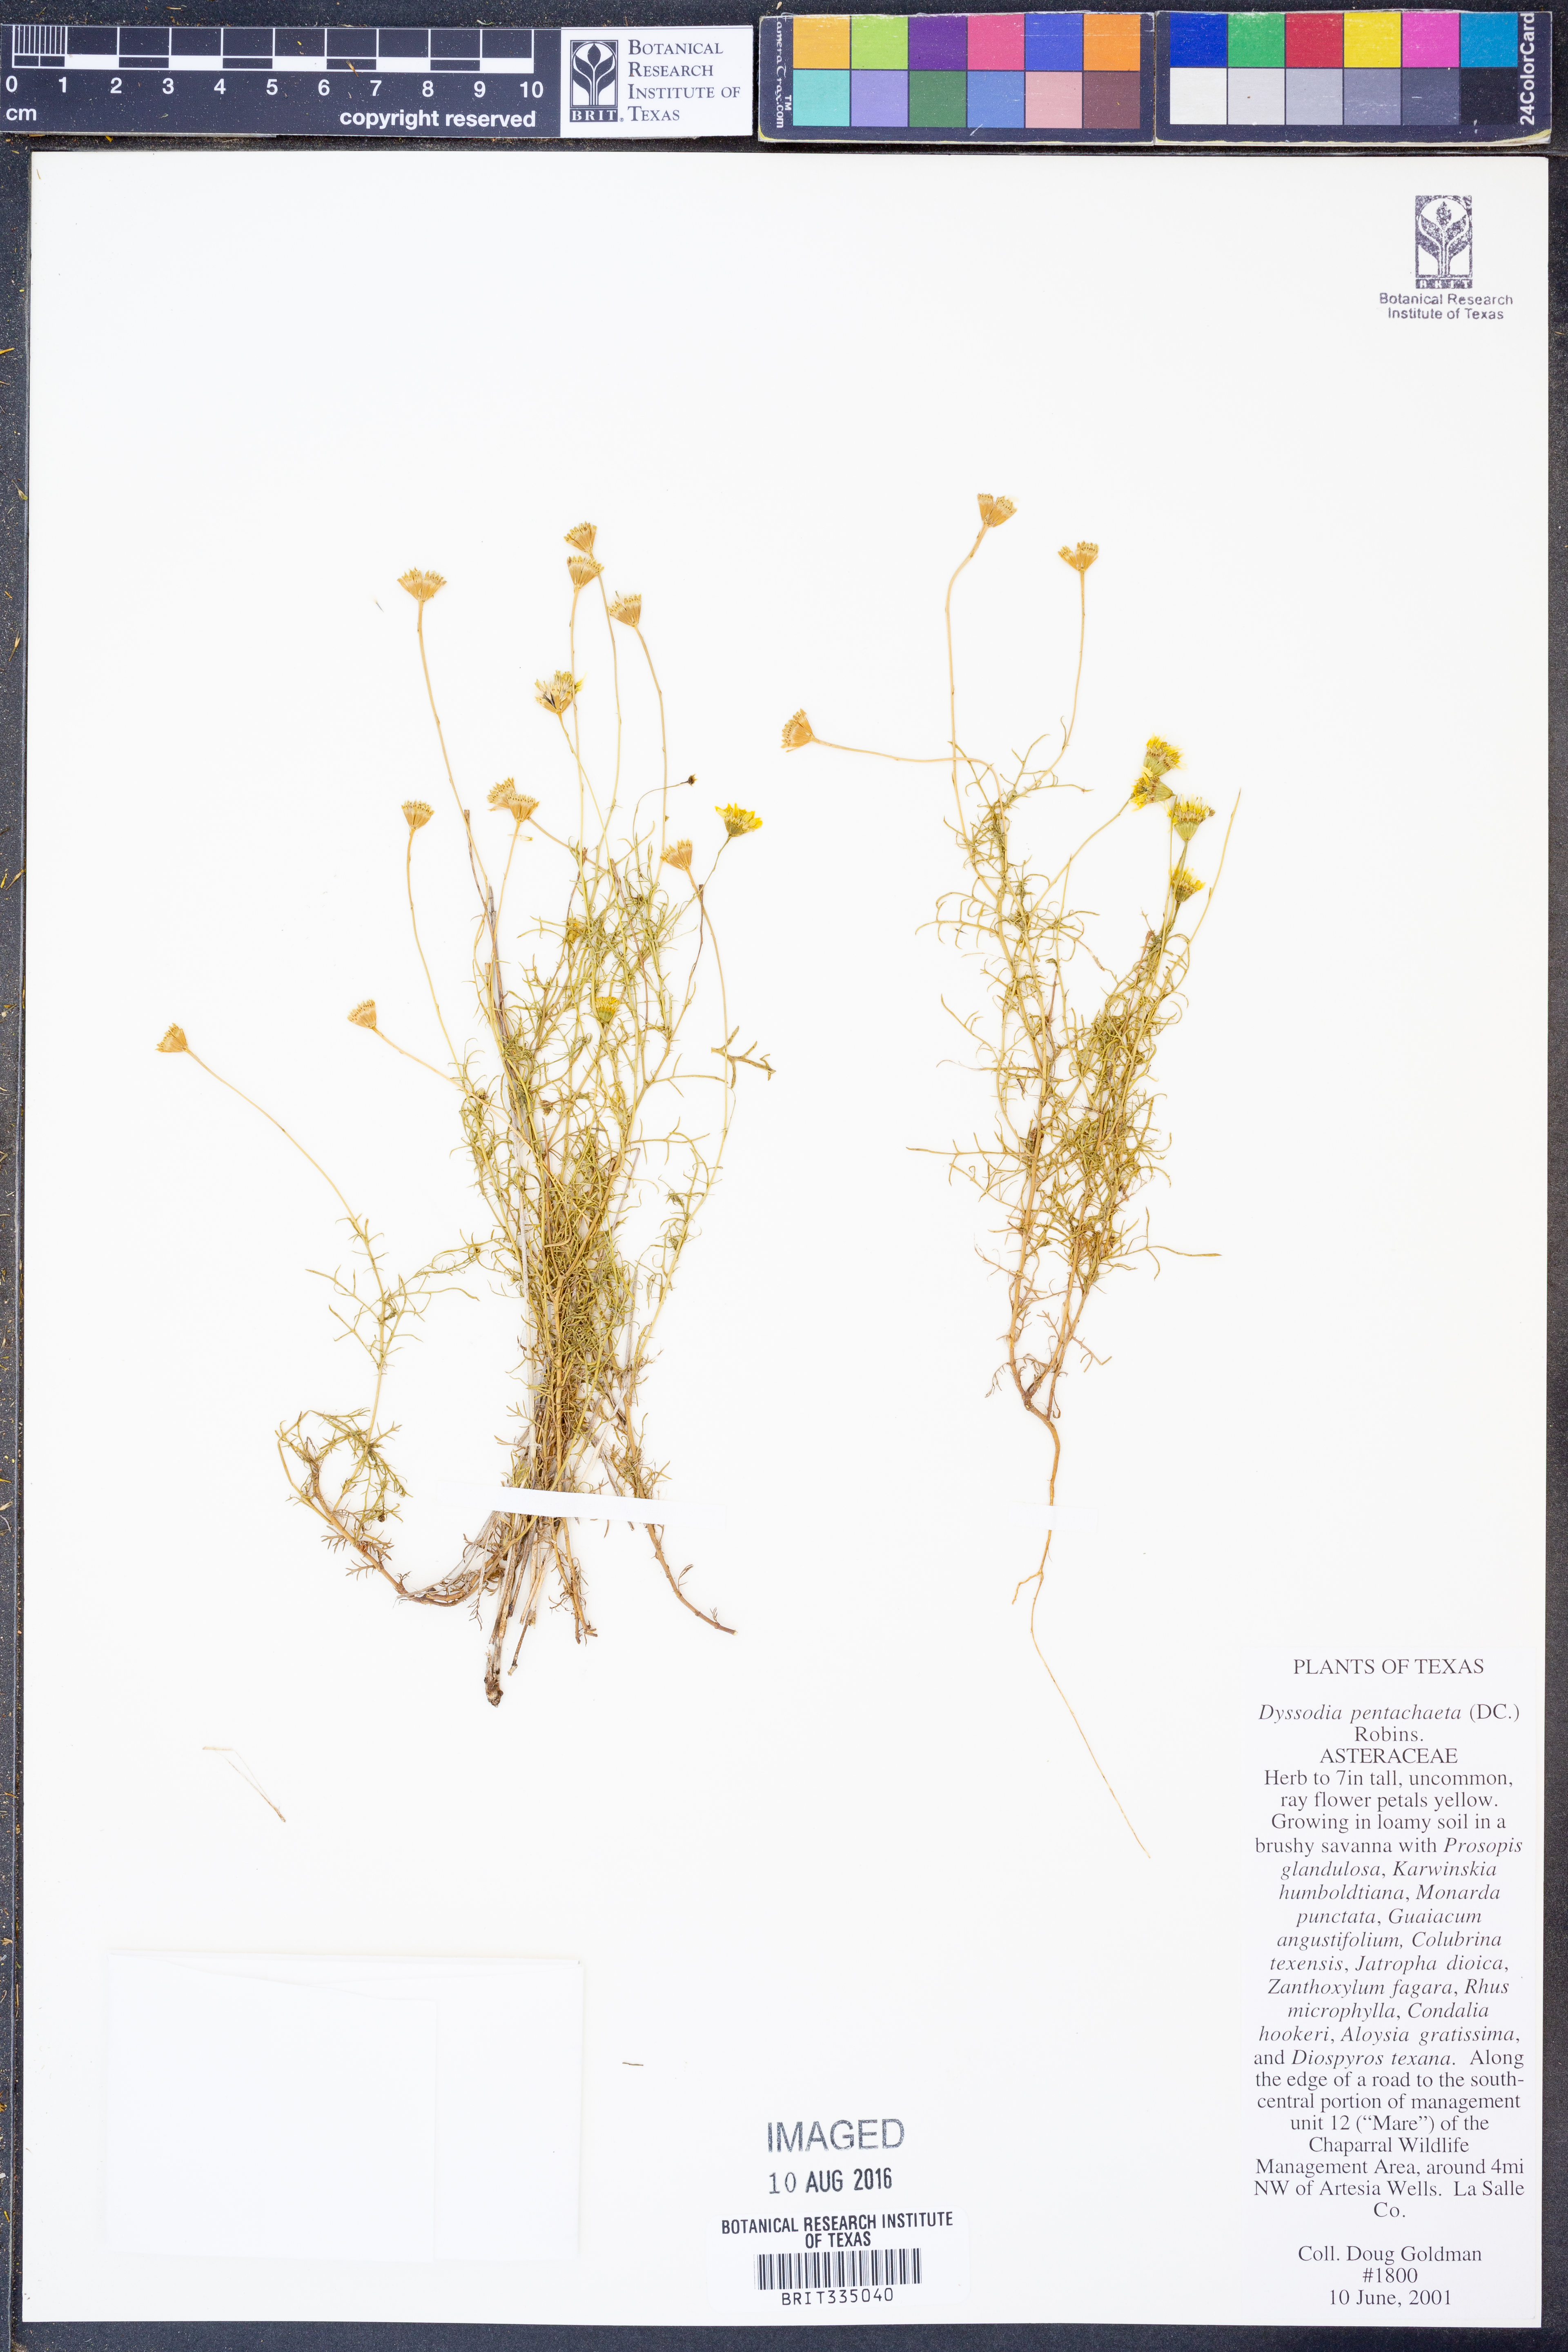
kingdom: Plantae
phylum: Tracheophyta
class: Magnoliopsida
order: Asterales
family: Asteraceae
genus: Thymophylla
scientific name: Thymophylla pentachaeta
